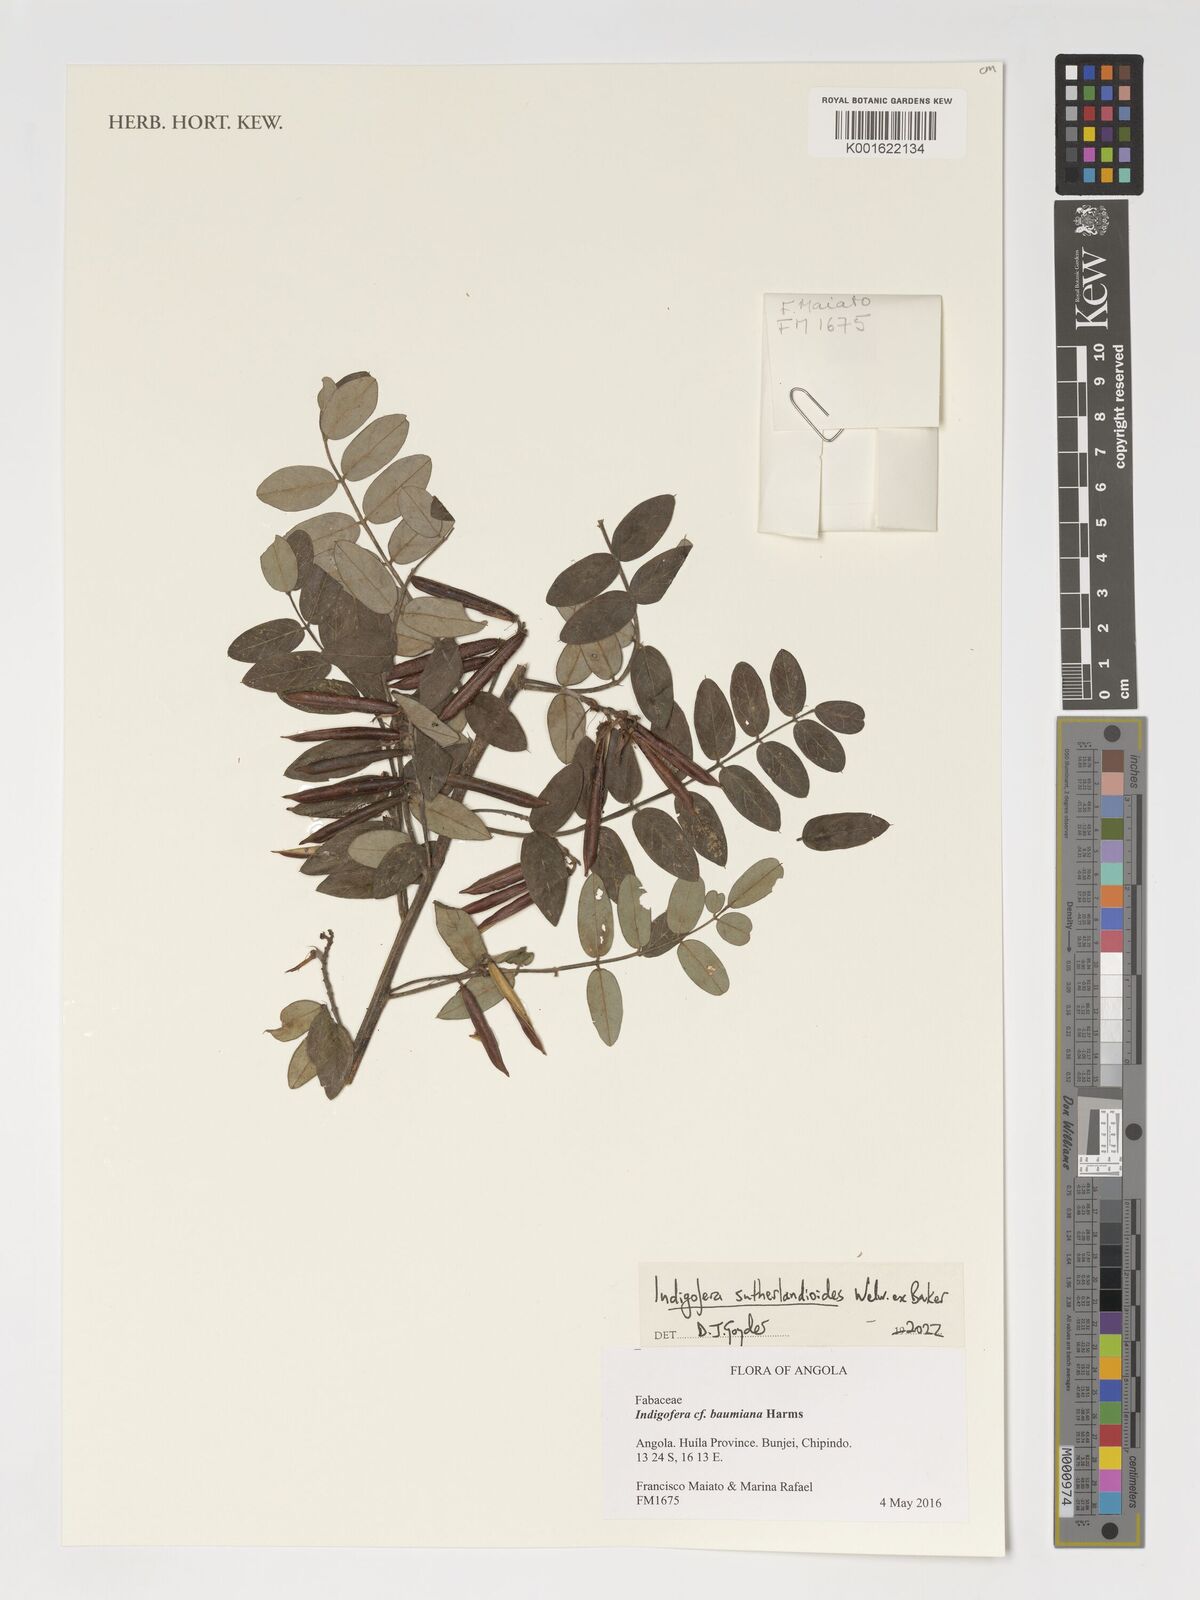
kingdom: Plantae
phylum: Tracheophyta
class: Magnoliopsida
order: Fabales
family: Fabaceae
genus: Indigofera
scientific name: Indigofera sutherlandioides
